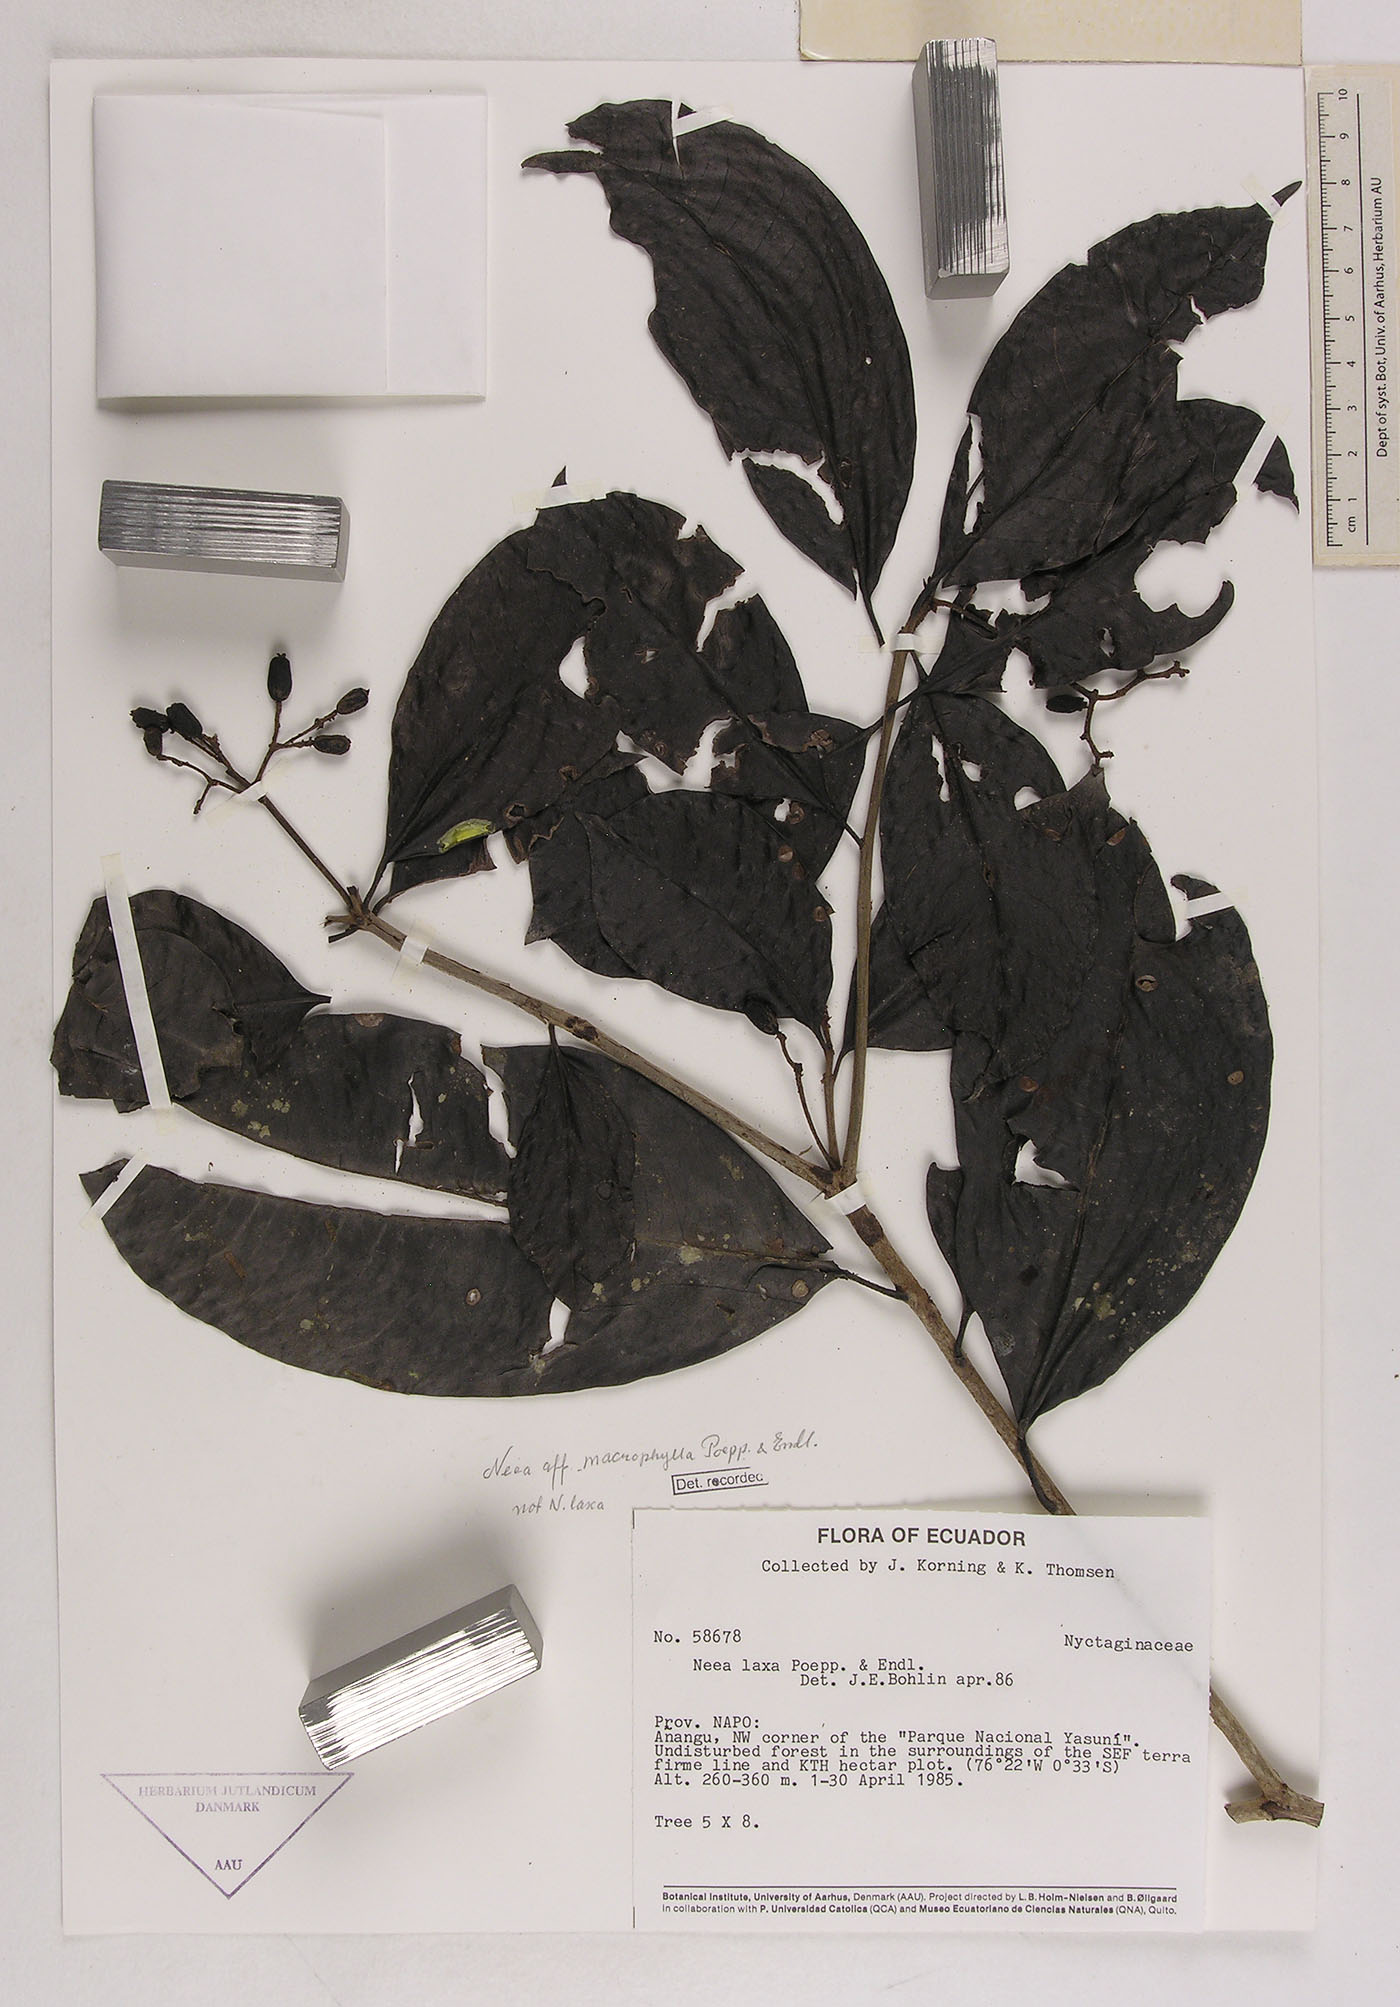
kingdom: Plantae
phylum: Tracheophyta
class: Magnoliopsida
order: Caryophyllales
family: Nyctaginaceae
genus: Neea
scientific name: Neea macrophylla
